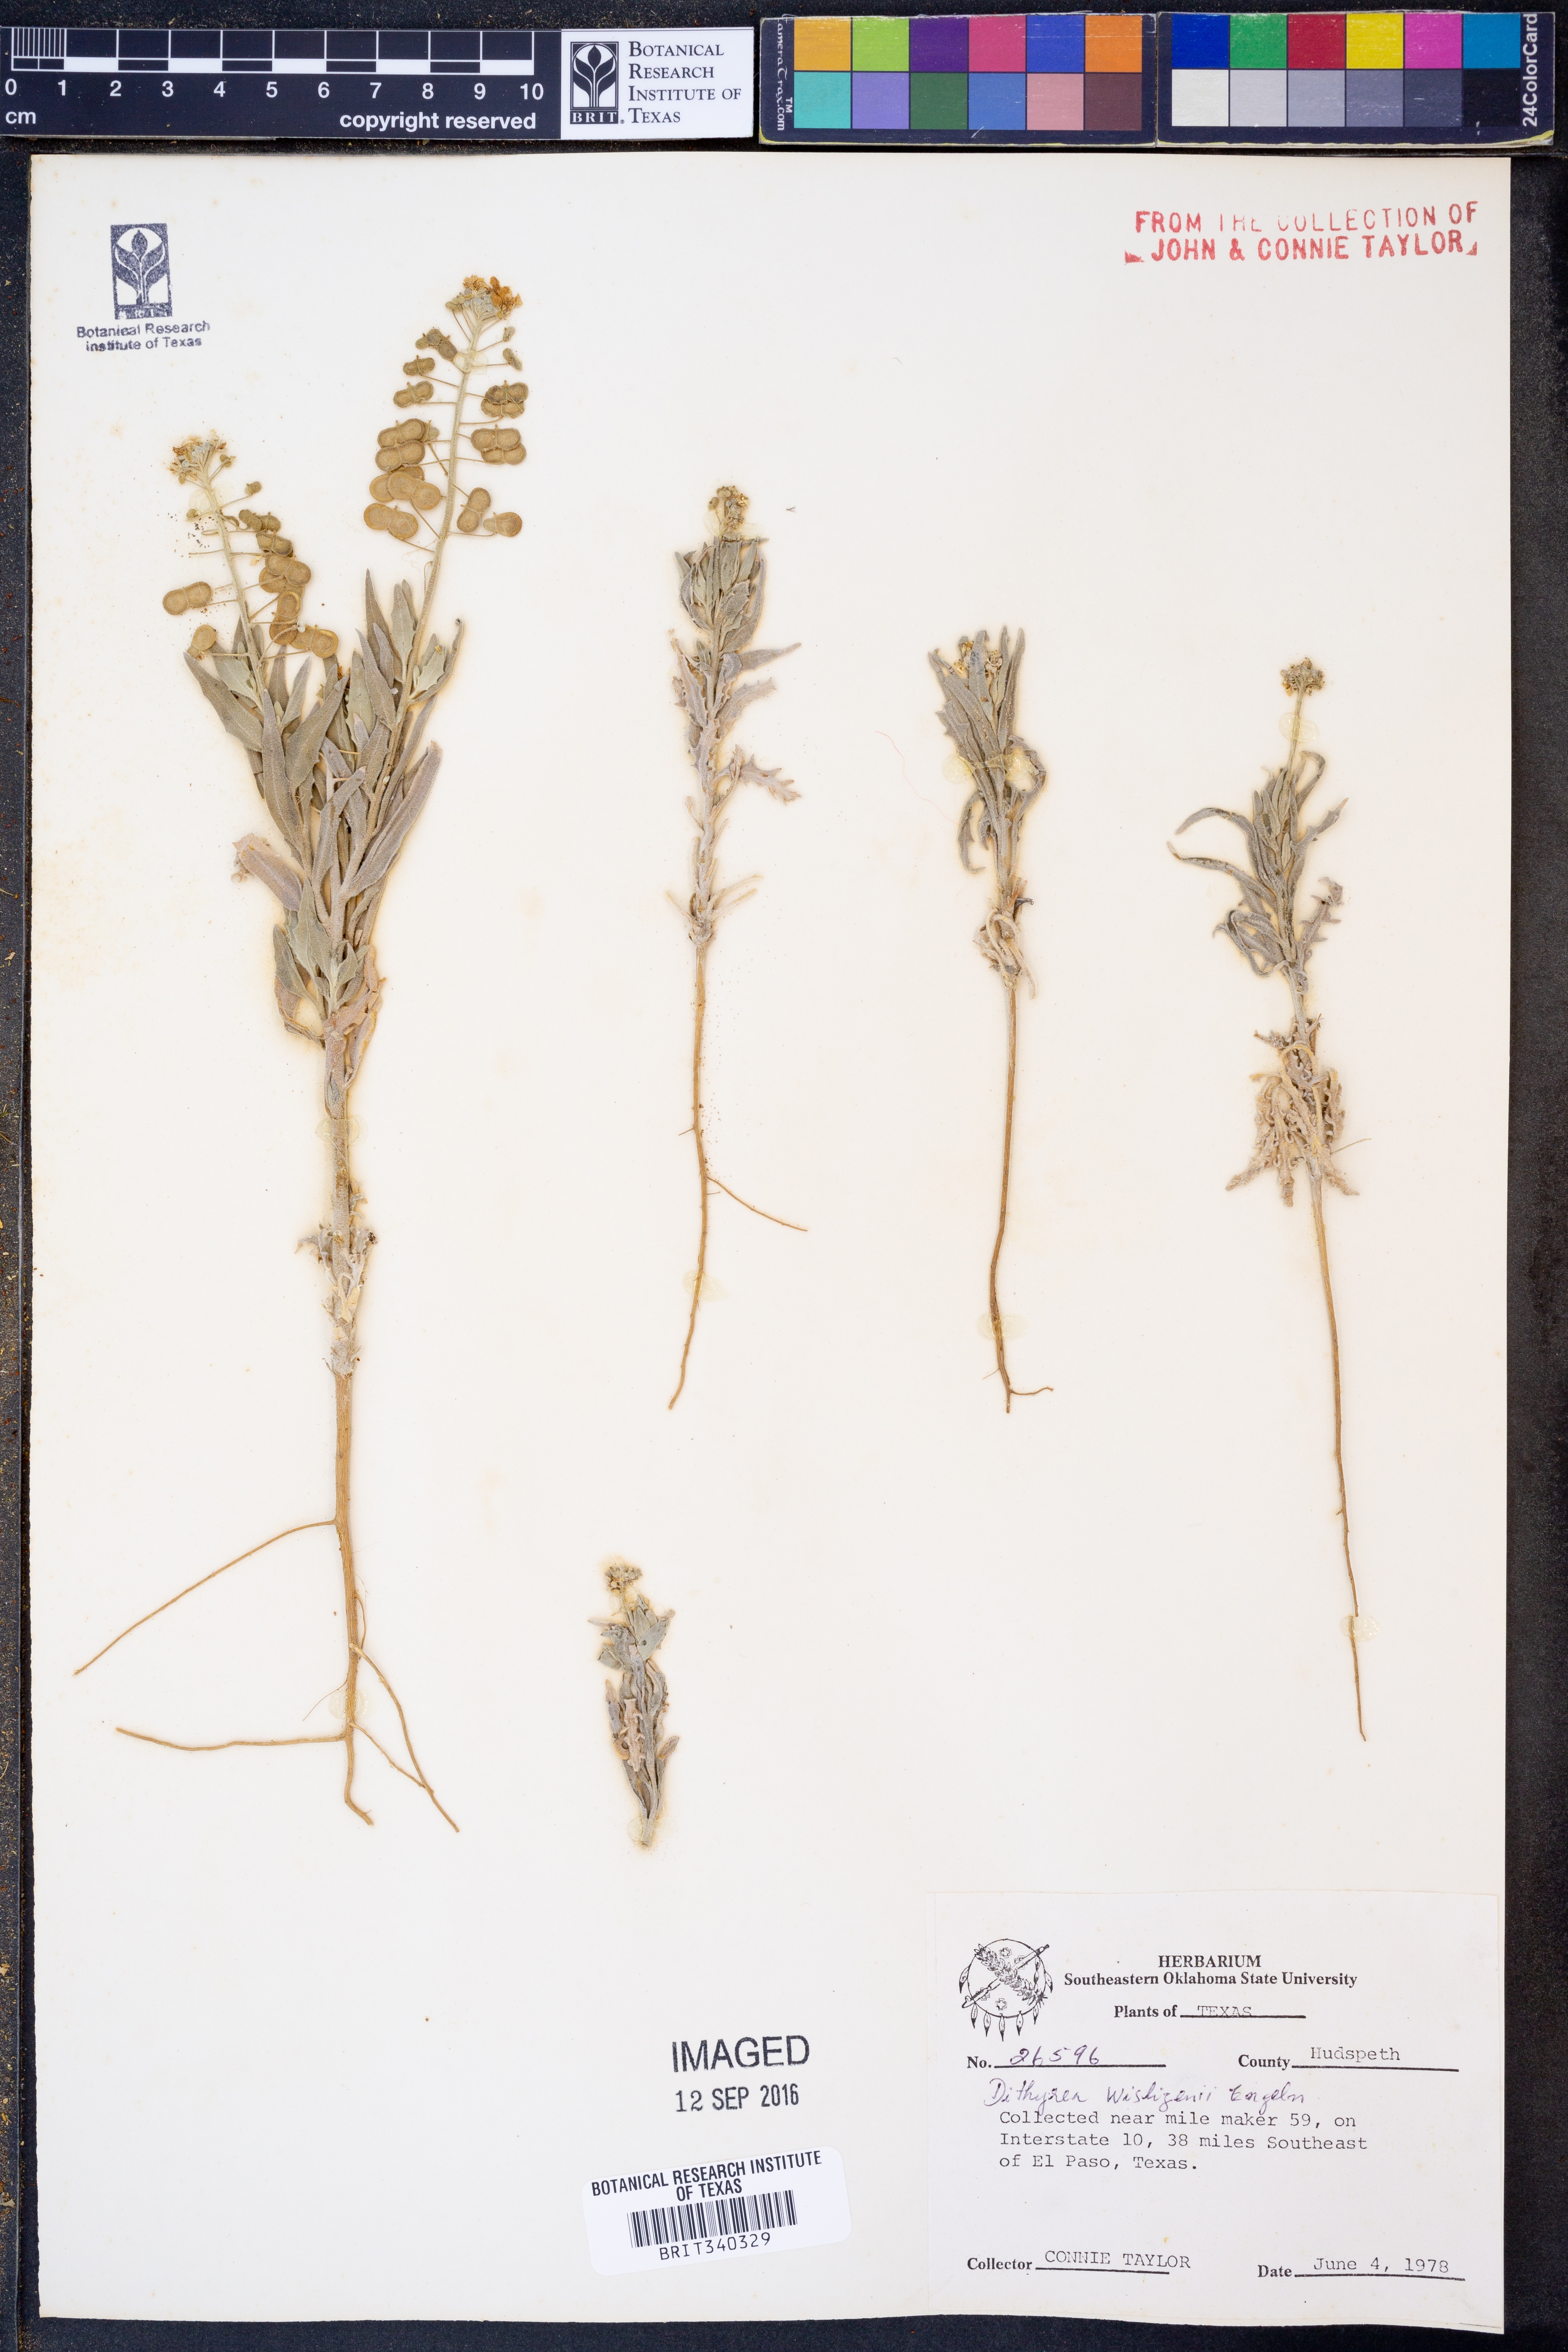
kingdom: Plantae
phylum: Tracheophyta
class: Magnoliopsida
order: Brassicales
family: Brassicaceae
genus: Dimorphocarpa
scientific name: Dimorphocarpa wislizenii
